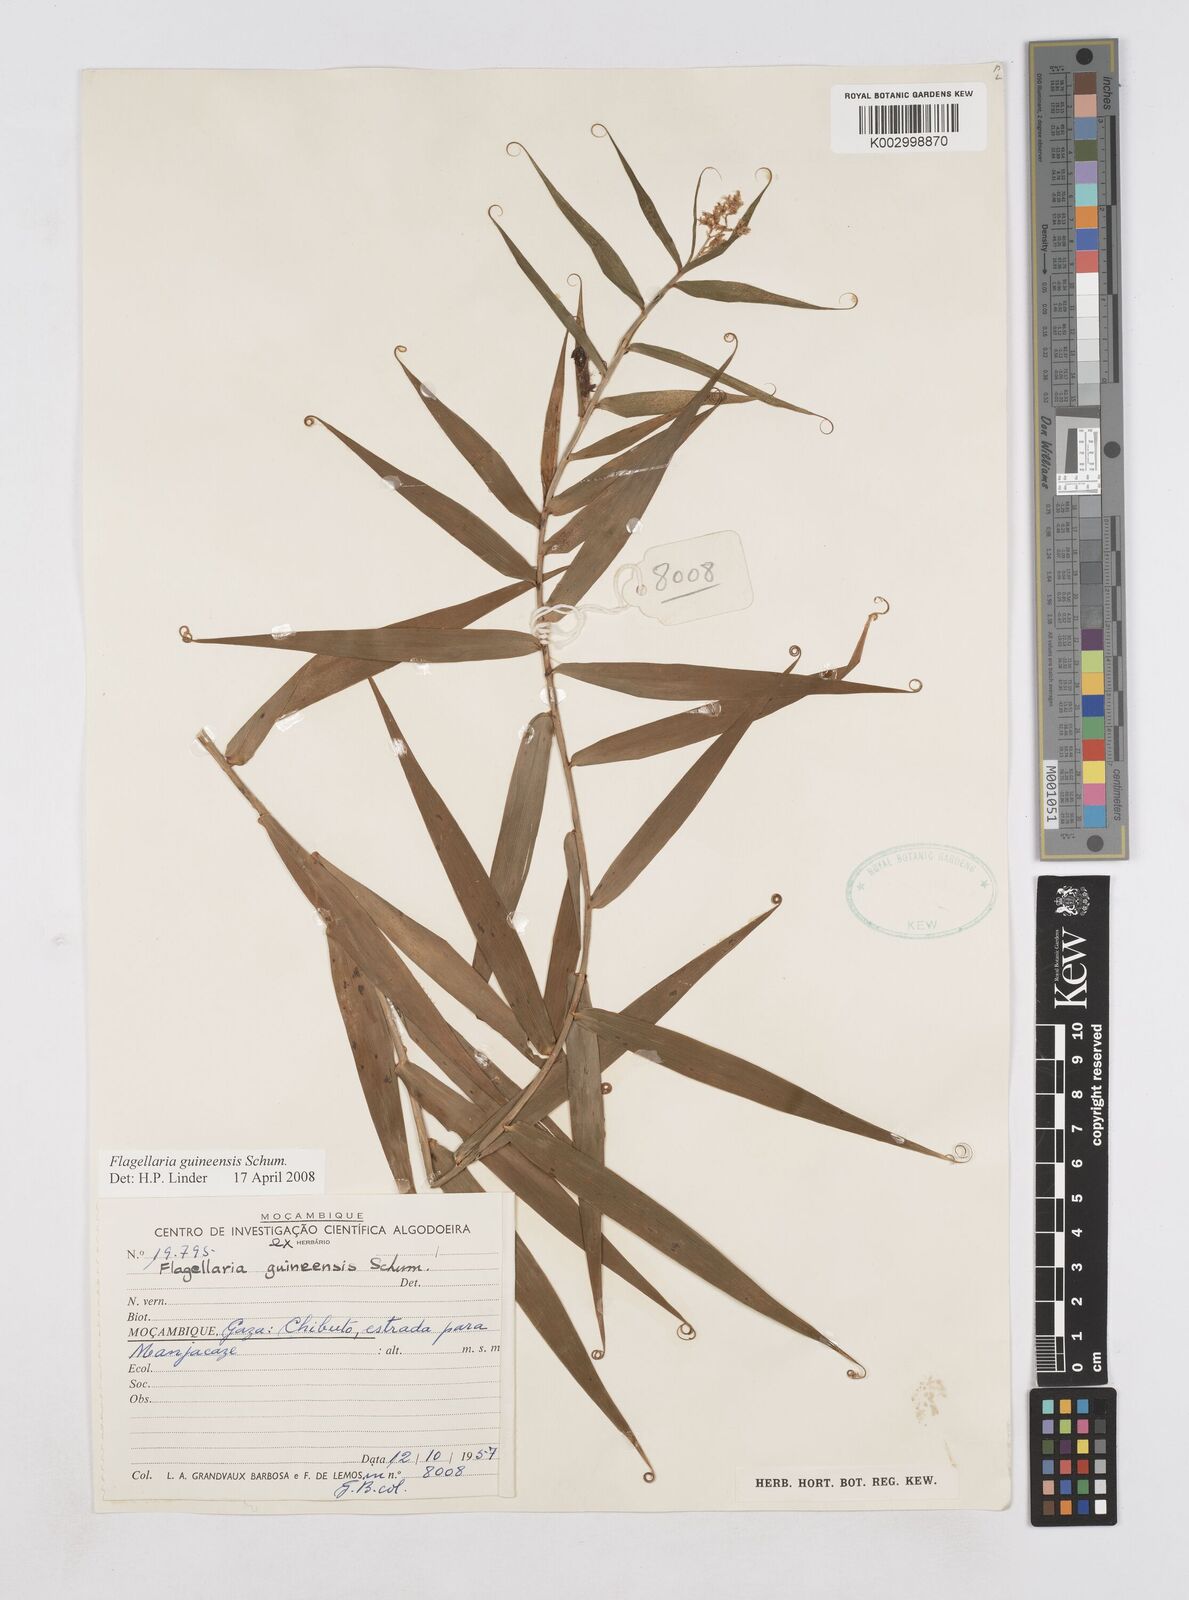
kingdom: Plantae
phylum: Tracheophyta
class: Liliopsida
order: Poales
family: Flagellariaceae
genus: Flagellaria
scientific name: Flagellaria guineensis
